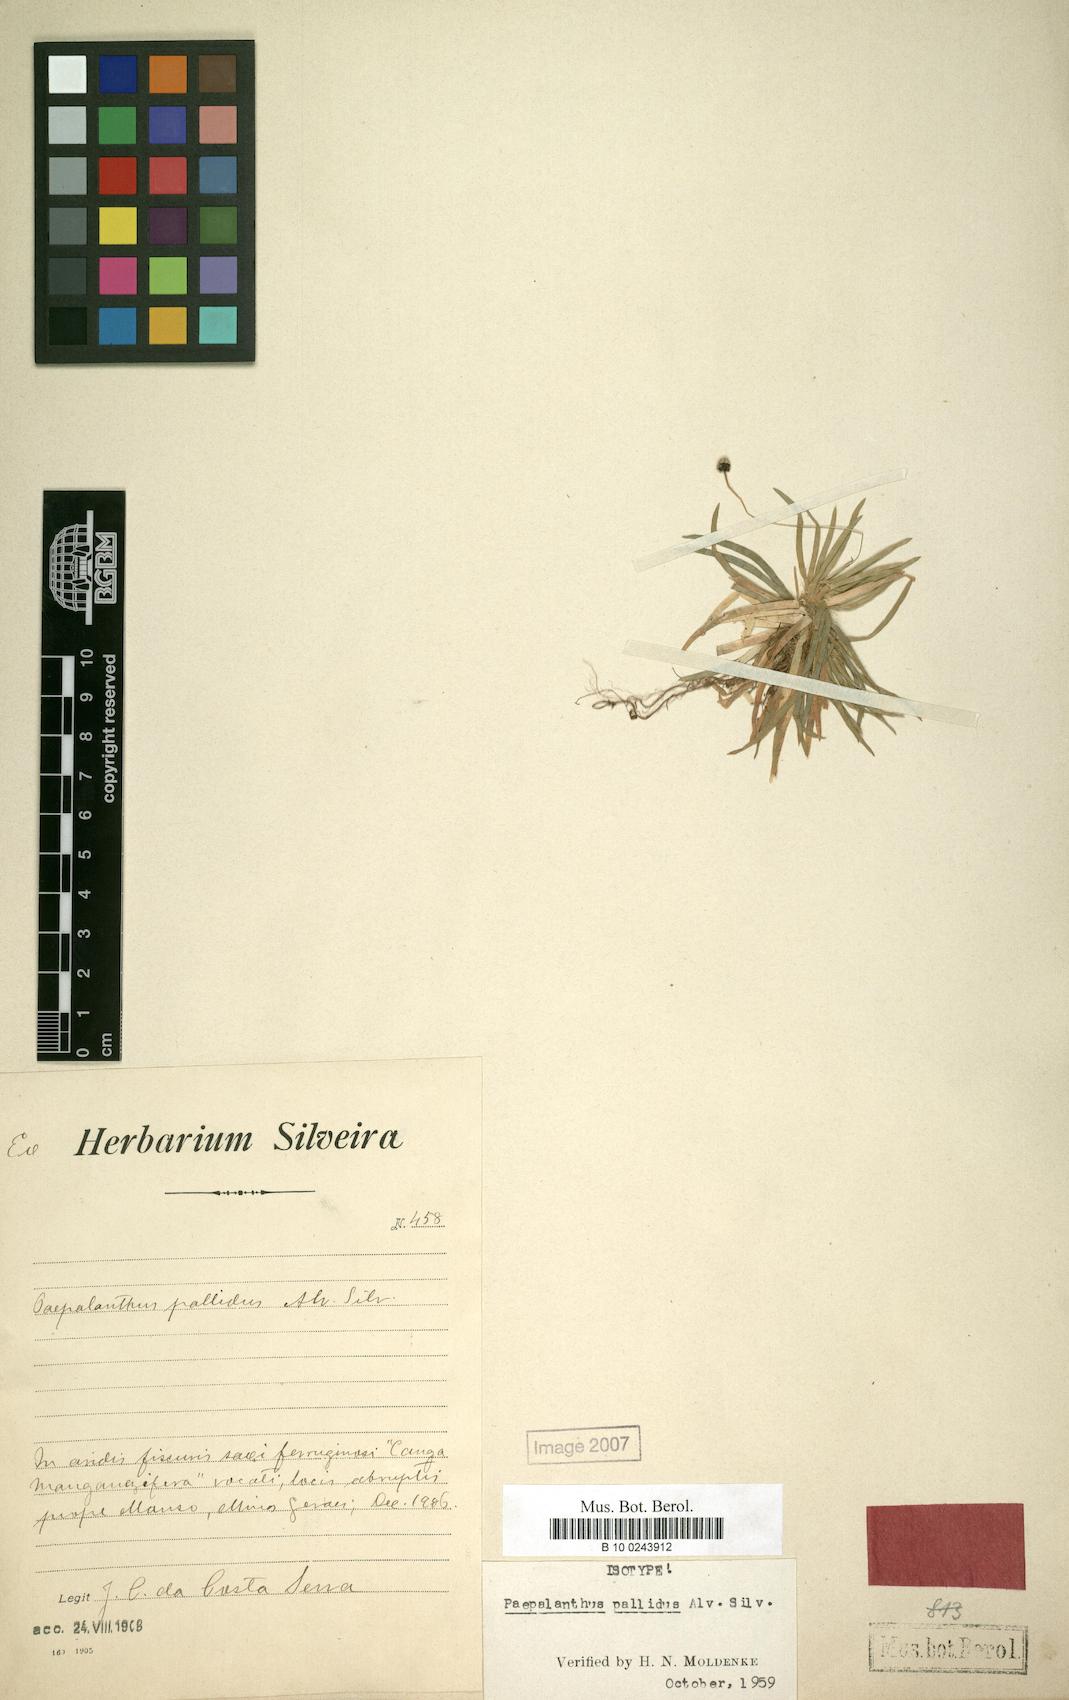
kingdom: Plantae
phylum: Tracheophyta
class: Liliopsida
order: Poales
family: Eriocaulaceae
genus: Paepalanthus
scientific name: Paepalanthus pallidus
